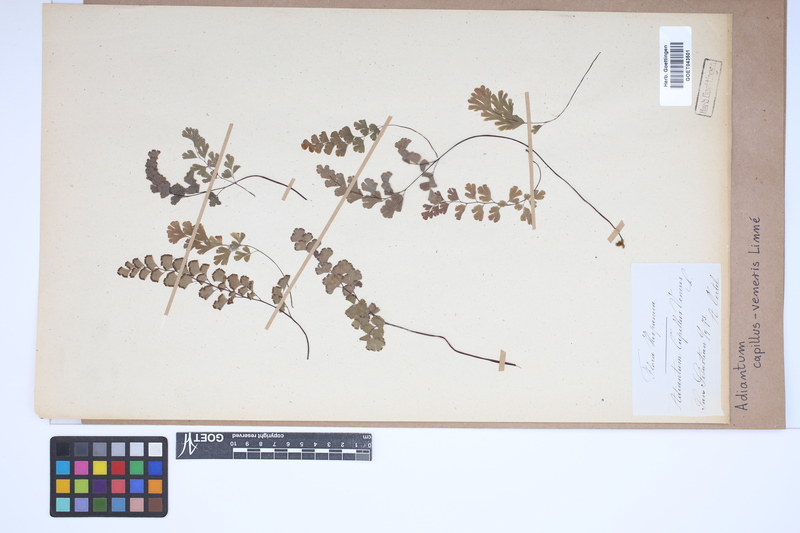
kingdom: Plantae
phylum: Tracheophyta
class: Polypodiopsida
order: Polypodiales
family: Pteridaceae
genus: Adiantum
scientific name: Adiantum capillus-veneris
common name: Maidenhair fern
